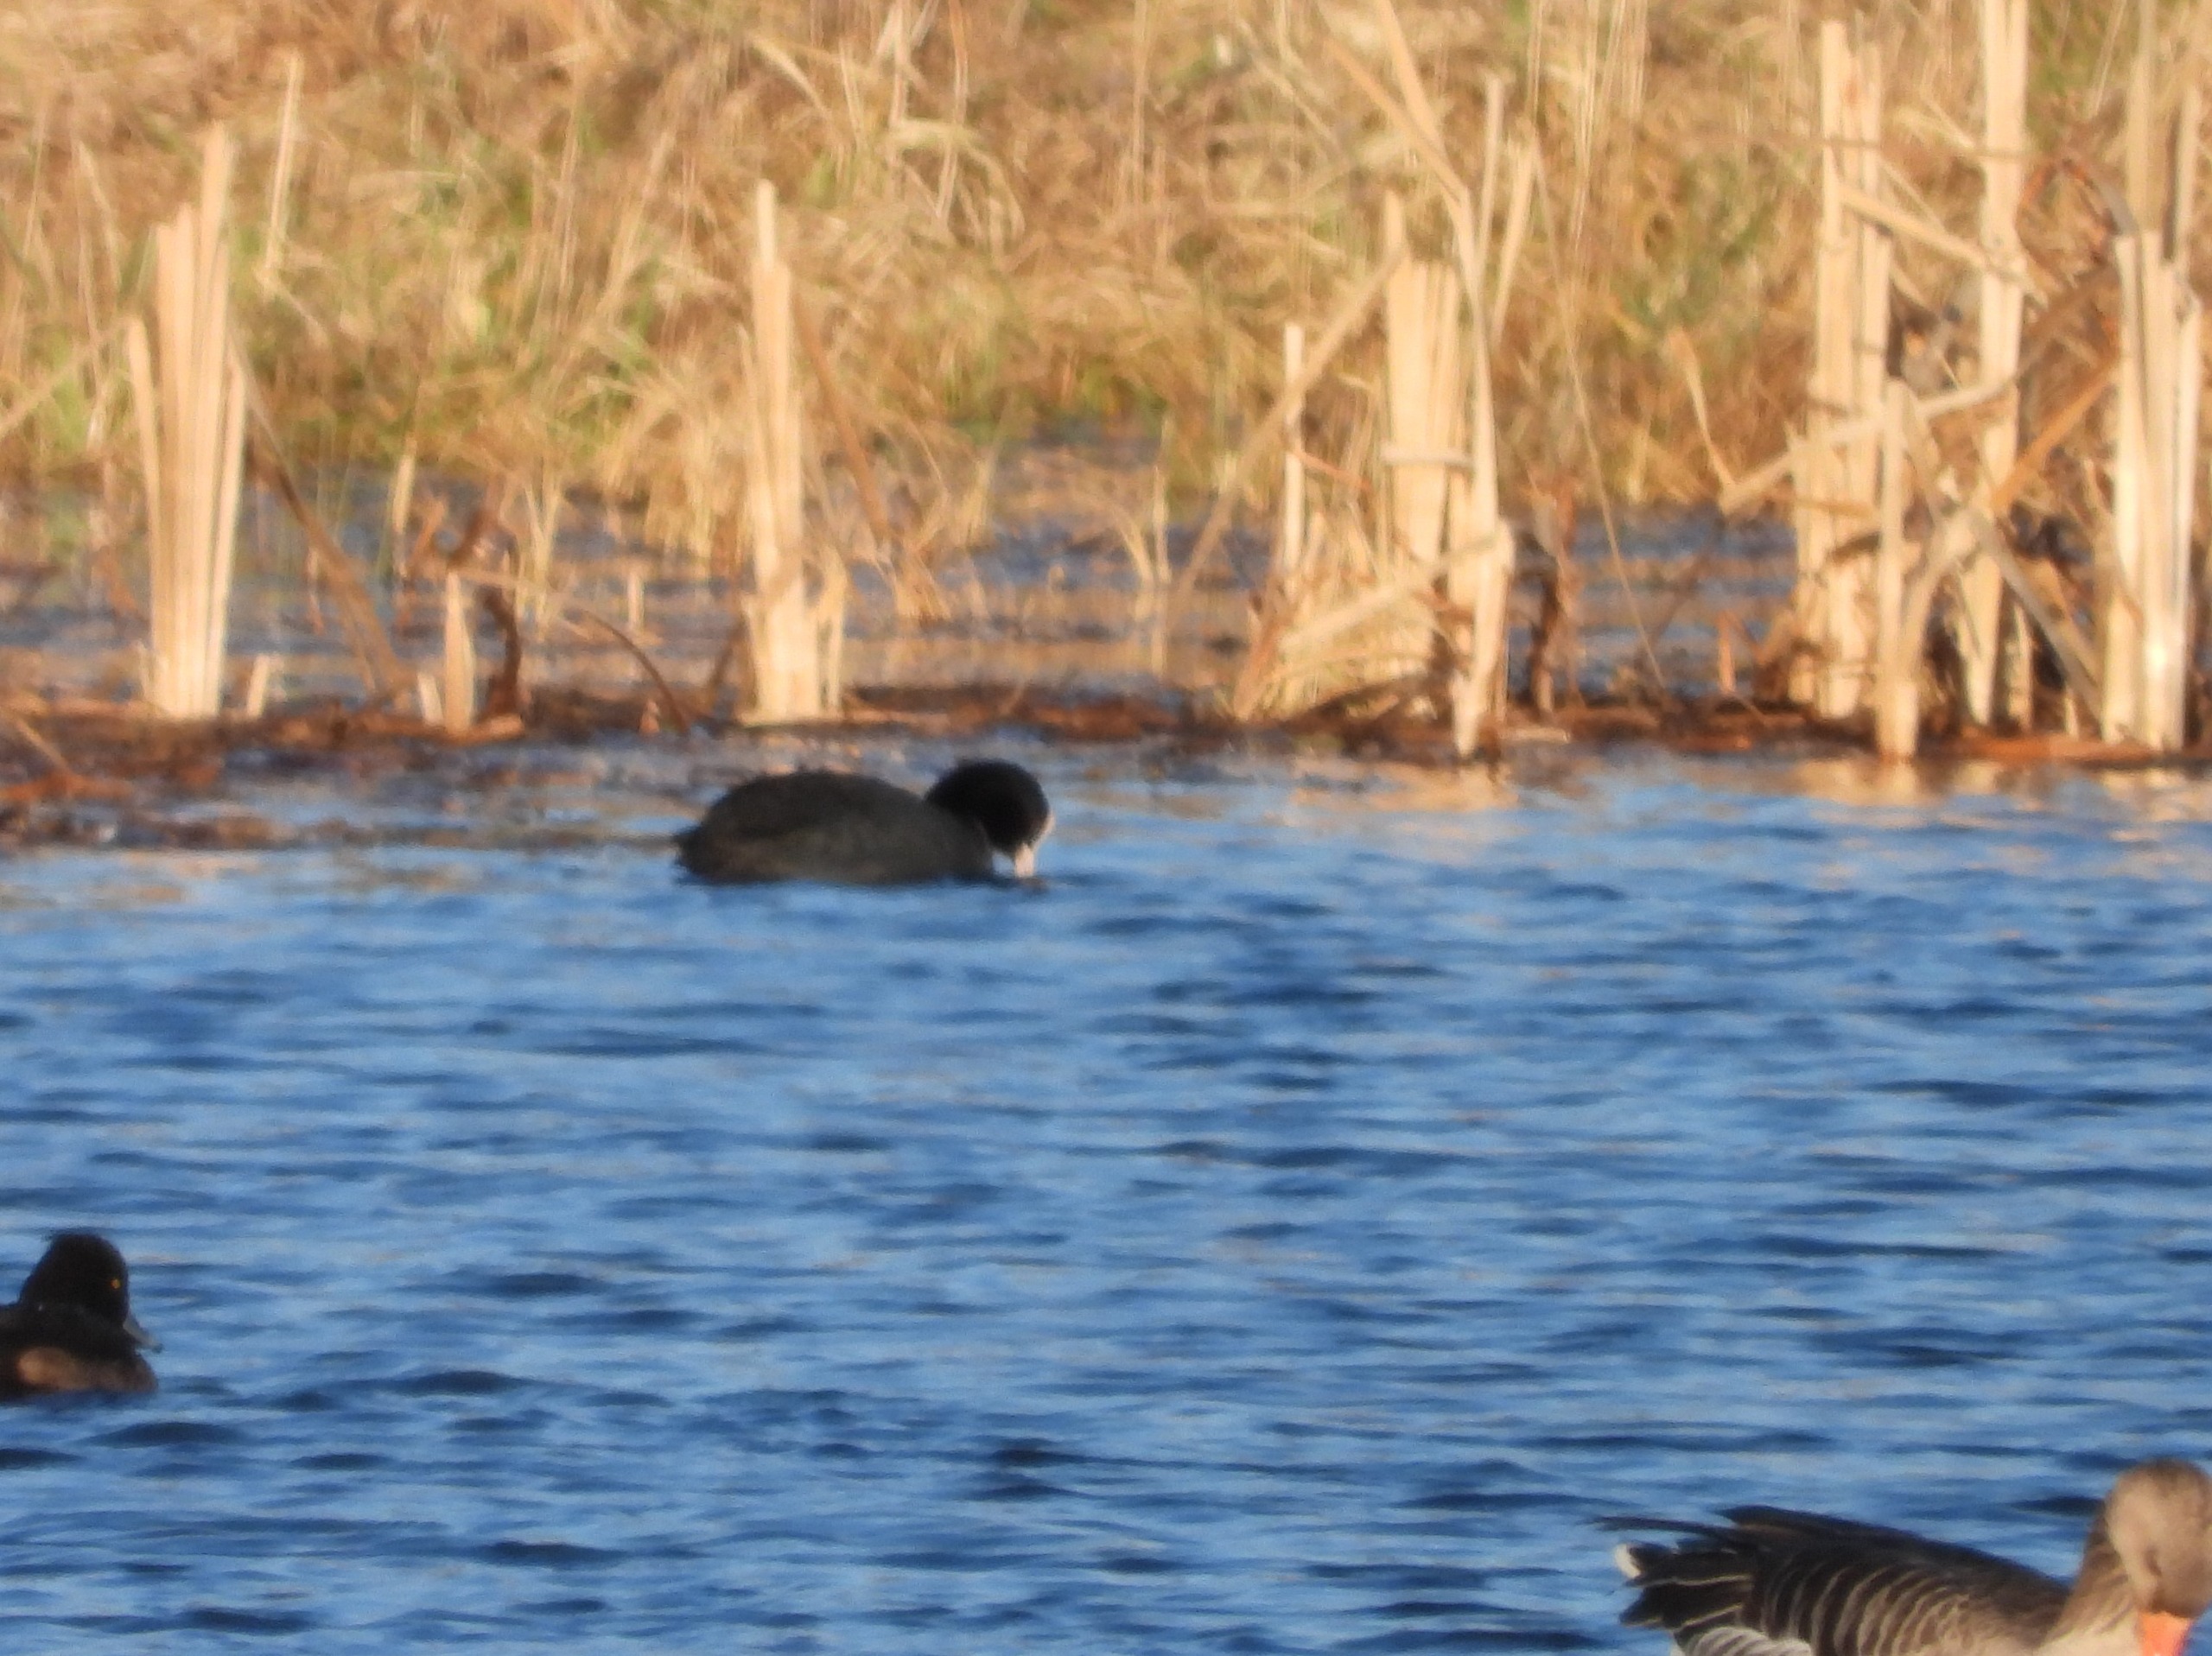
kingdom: Animalia
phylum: Chordata
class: Aves
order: Gruiformes
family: Rallidae
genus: Fulica
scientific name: Fulica atra
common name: Blishøne
